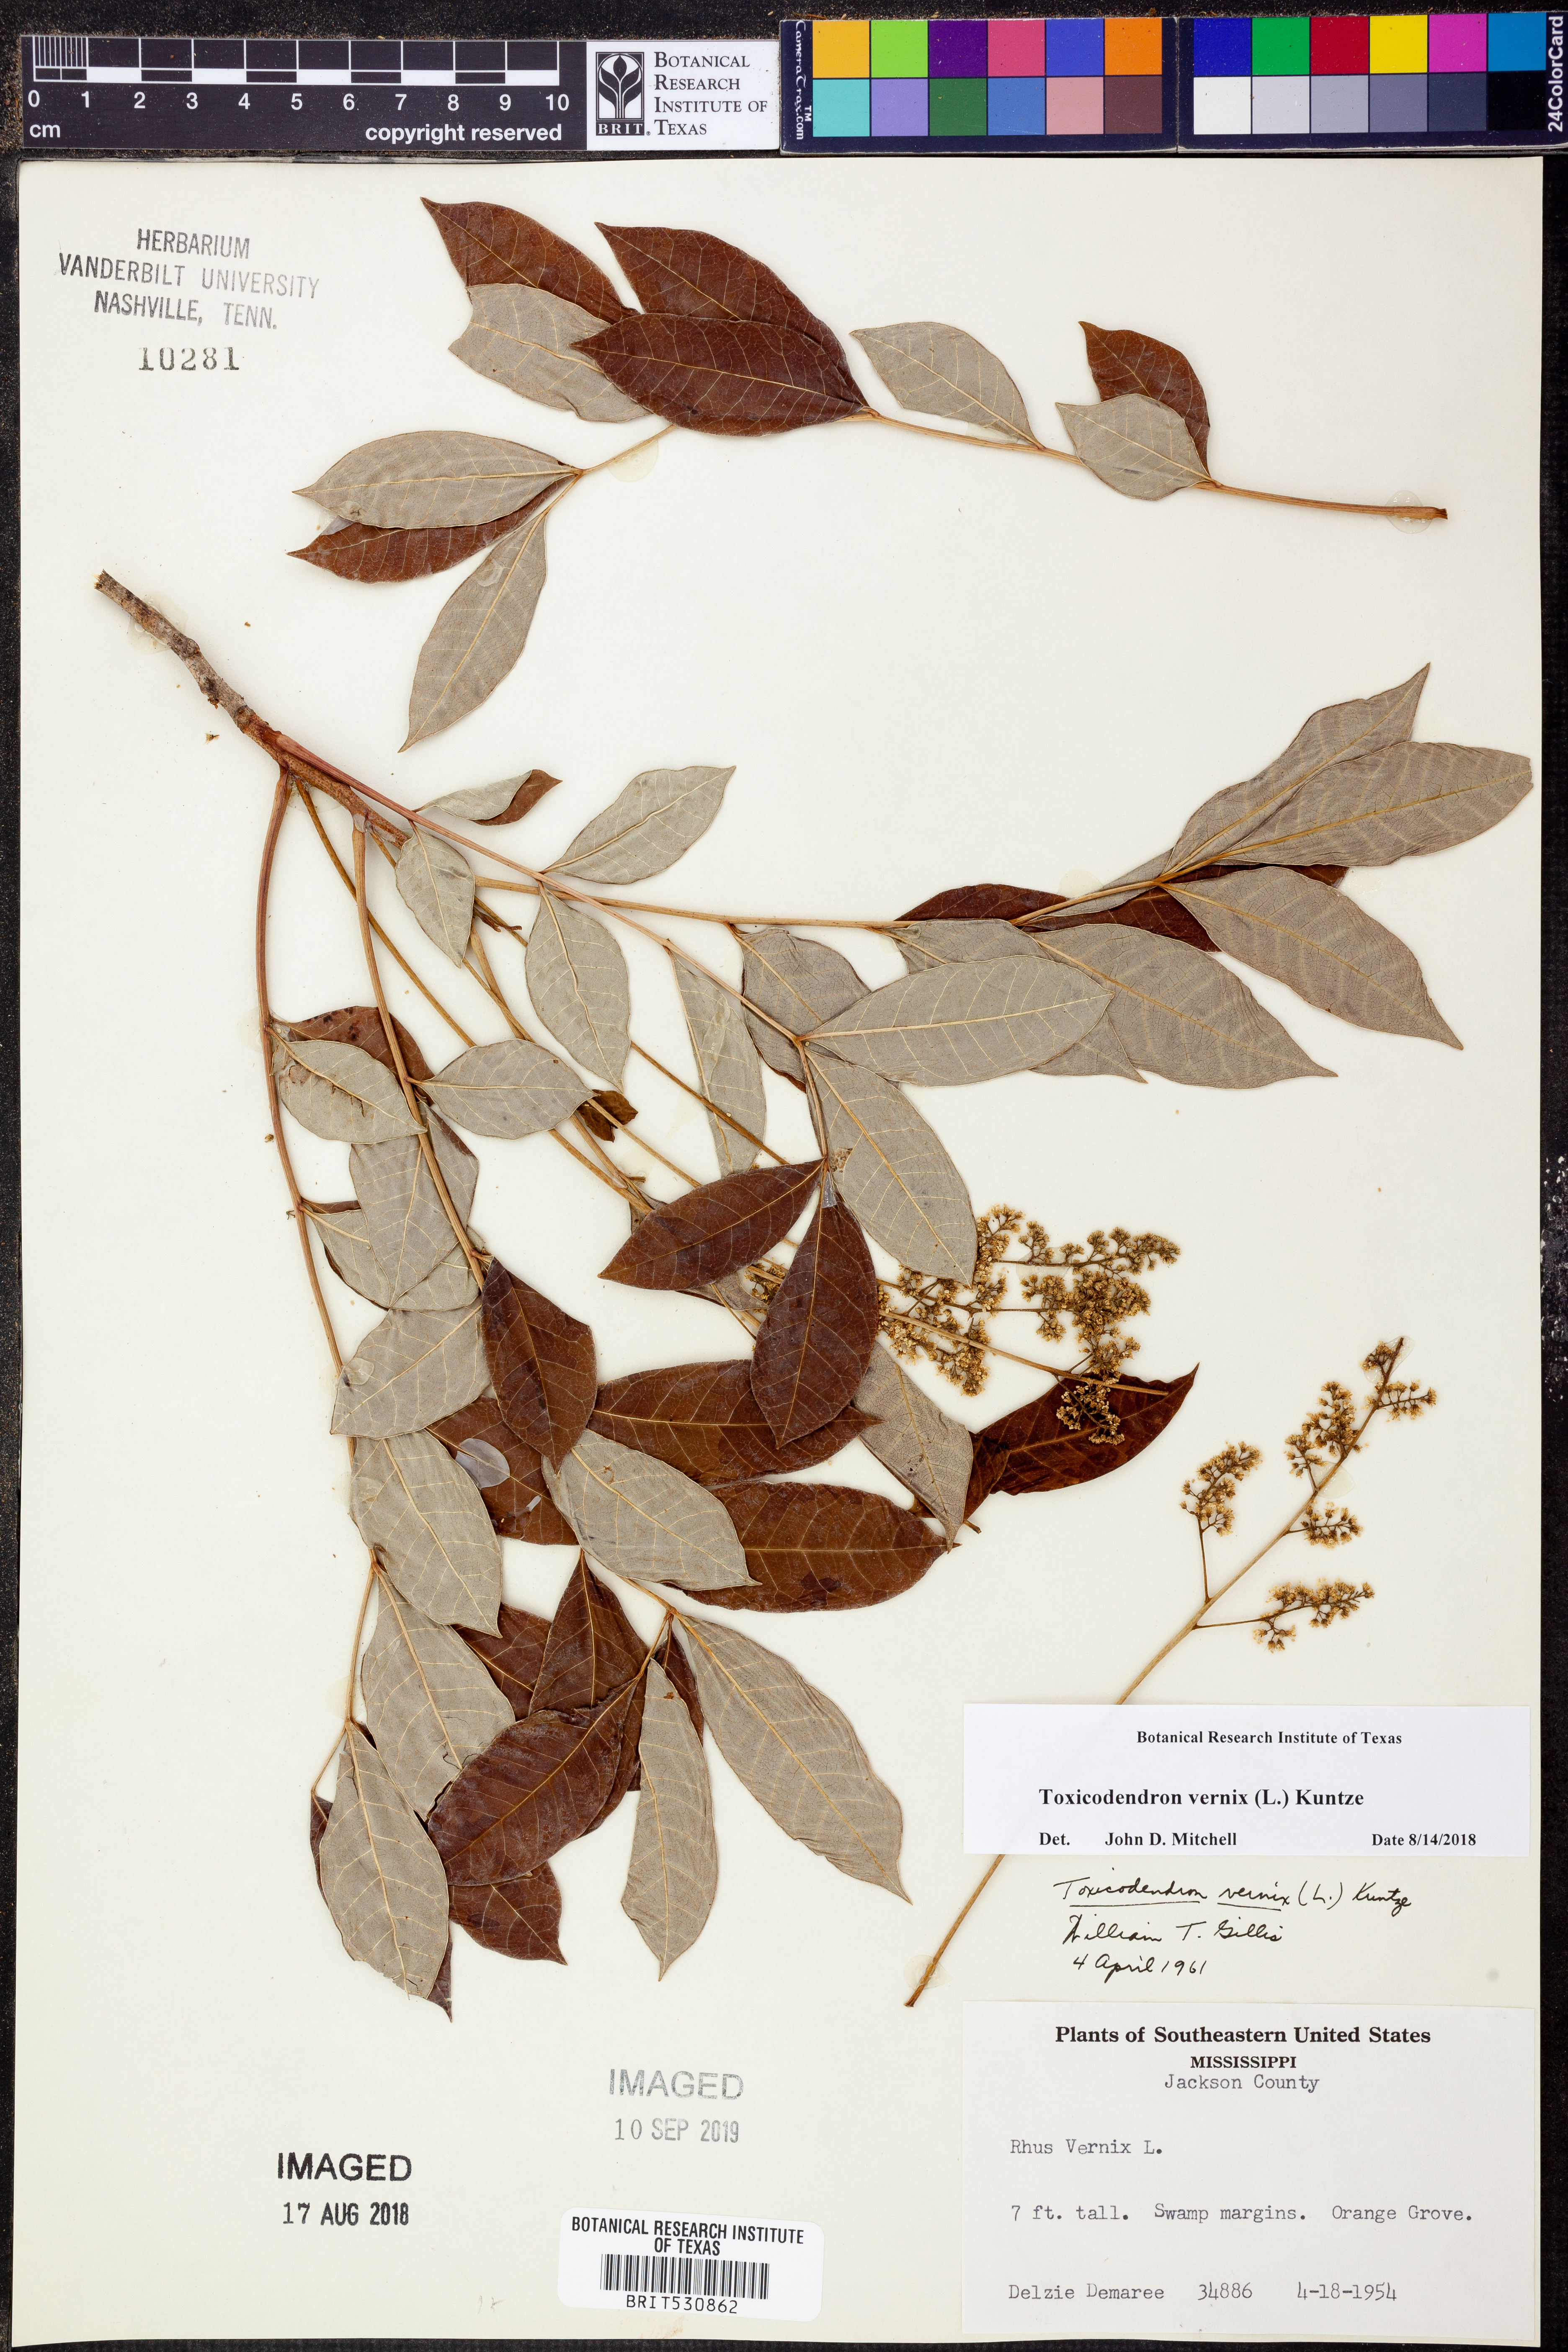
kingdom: Plantae
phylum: Tracheophyta
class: Magnoliopsida
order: Sapindales
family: Anacardiaceae
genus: Toxicodendron
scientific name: Toxicodendron vernix
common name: Poison sumac
